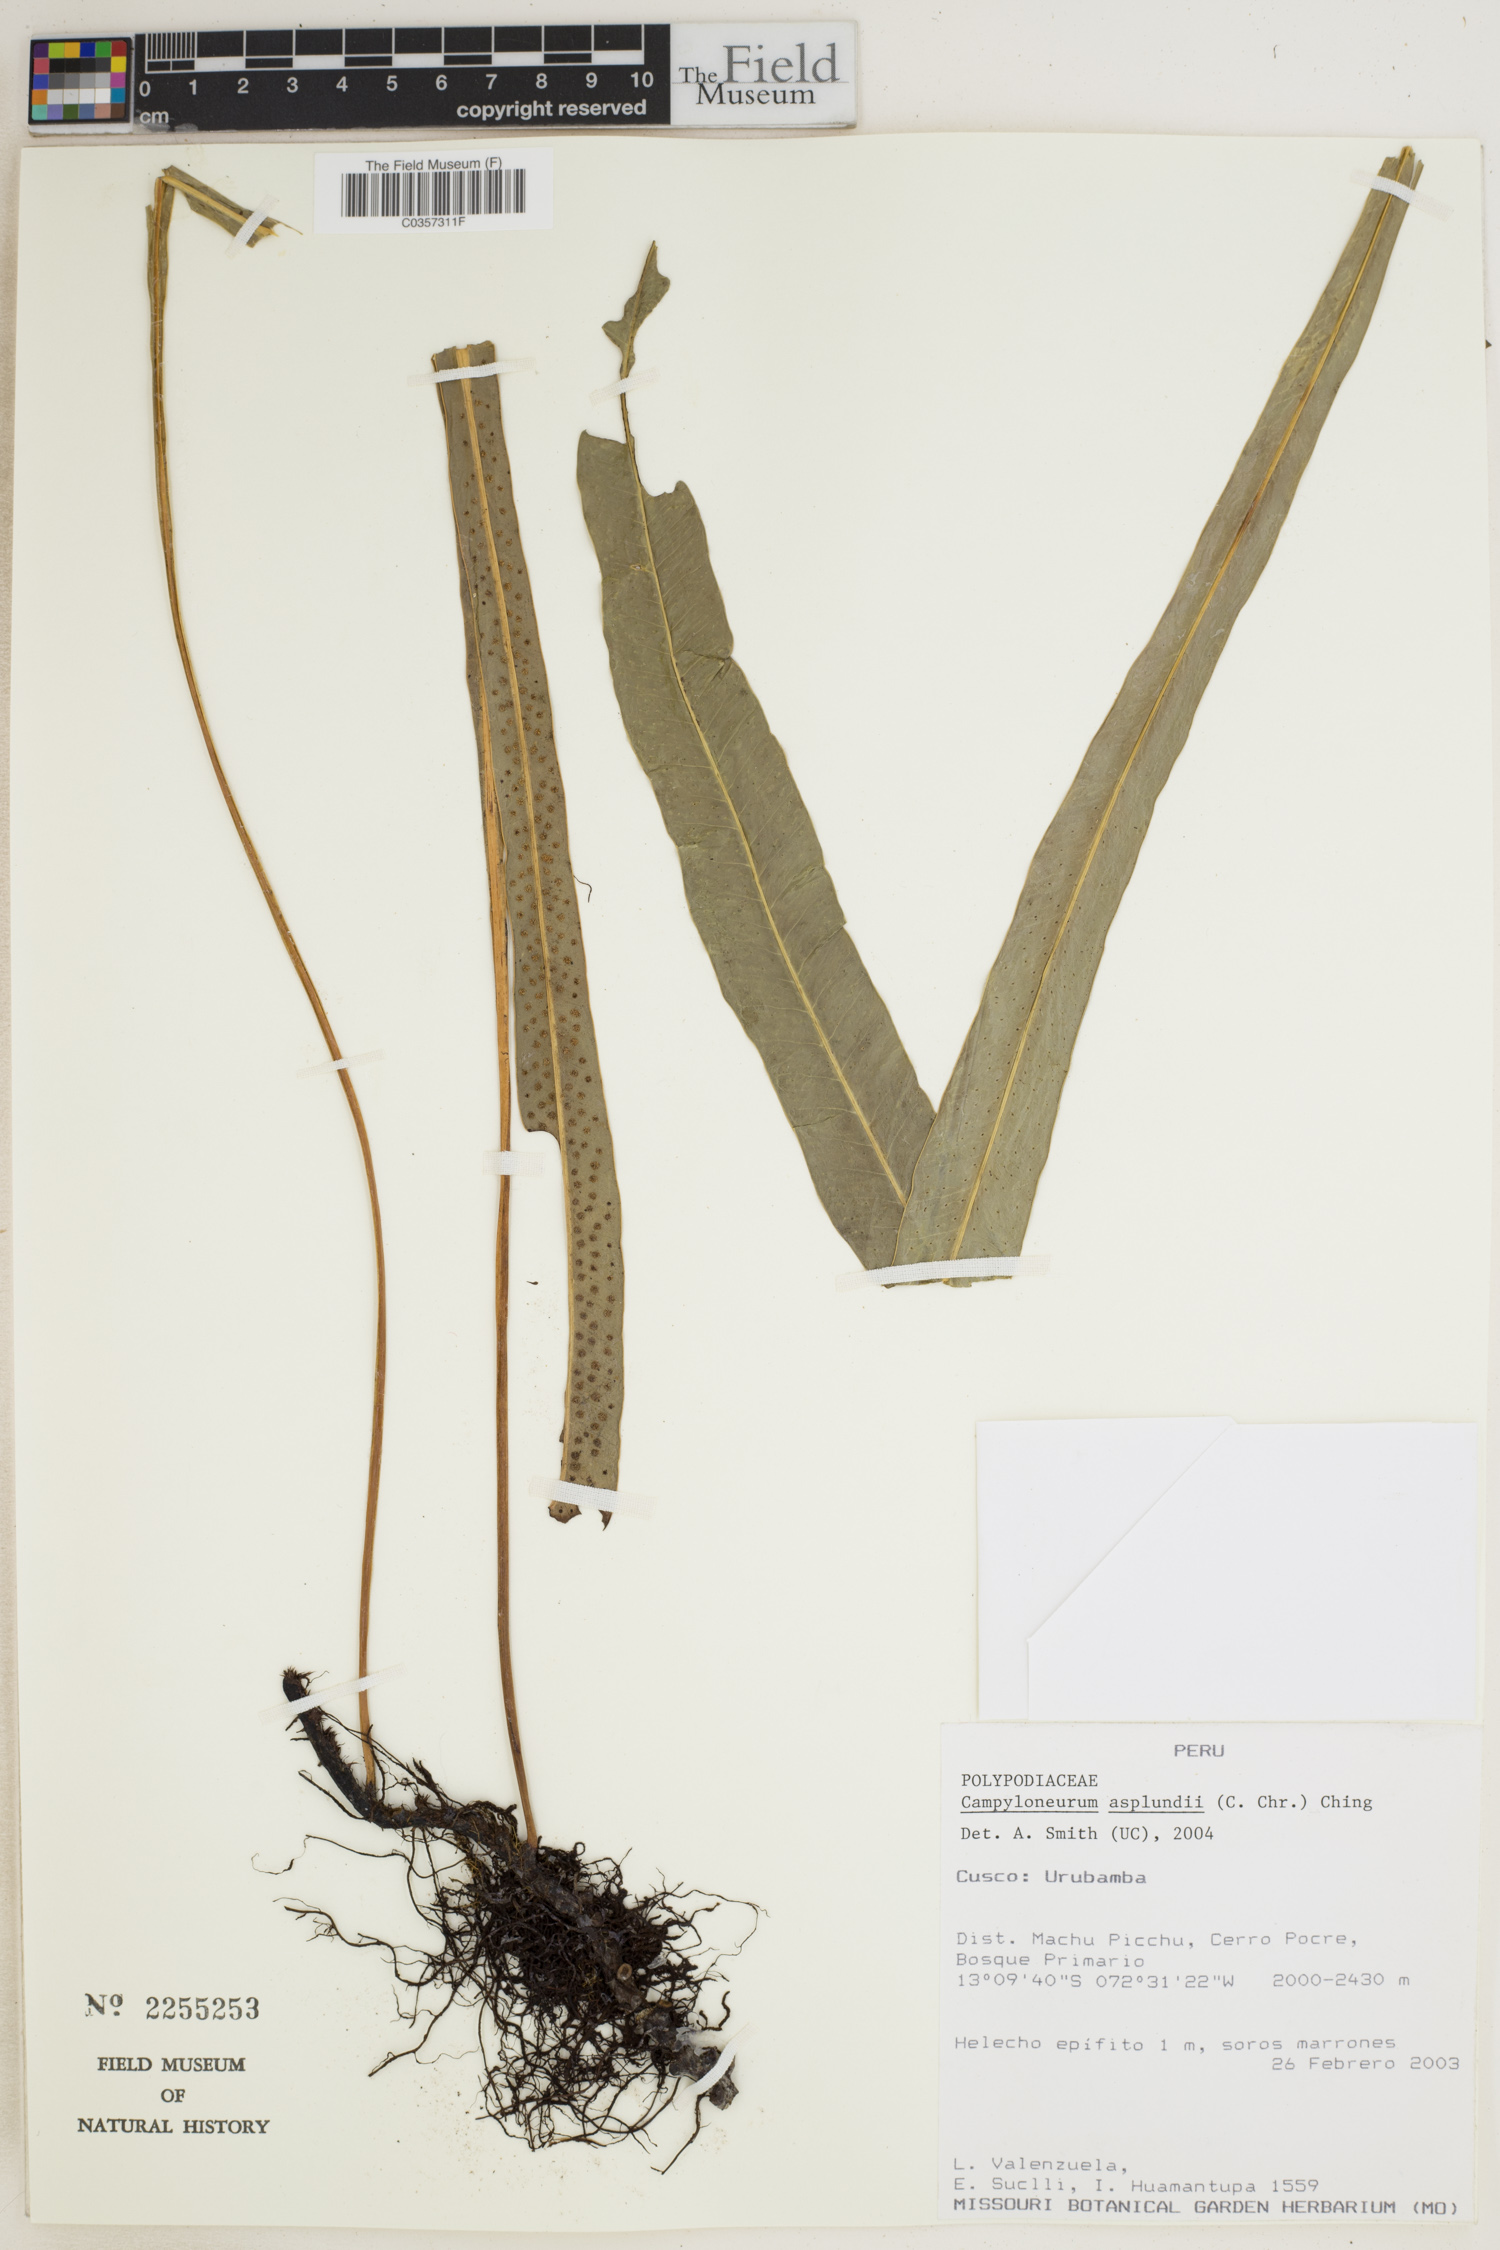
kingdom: Plantae
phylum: Tracheophyta
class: Polypodiopsida
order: Polypodiales
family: Polypodiaceae
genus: Campyloneurum
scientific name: Campyloneurum asplundii
